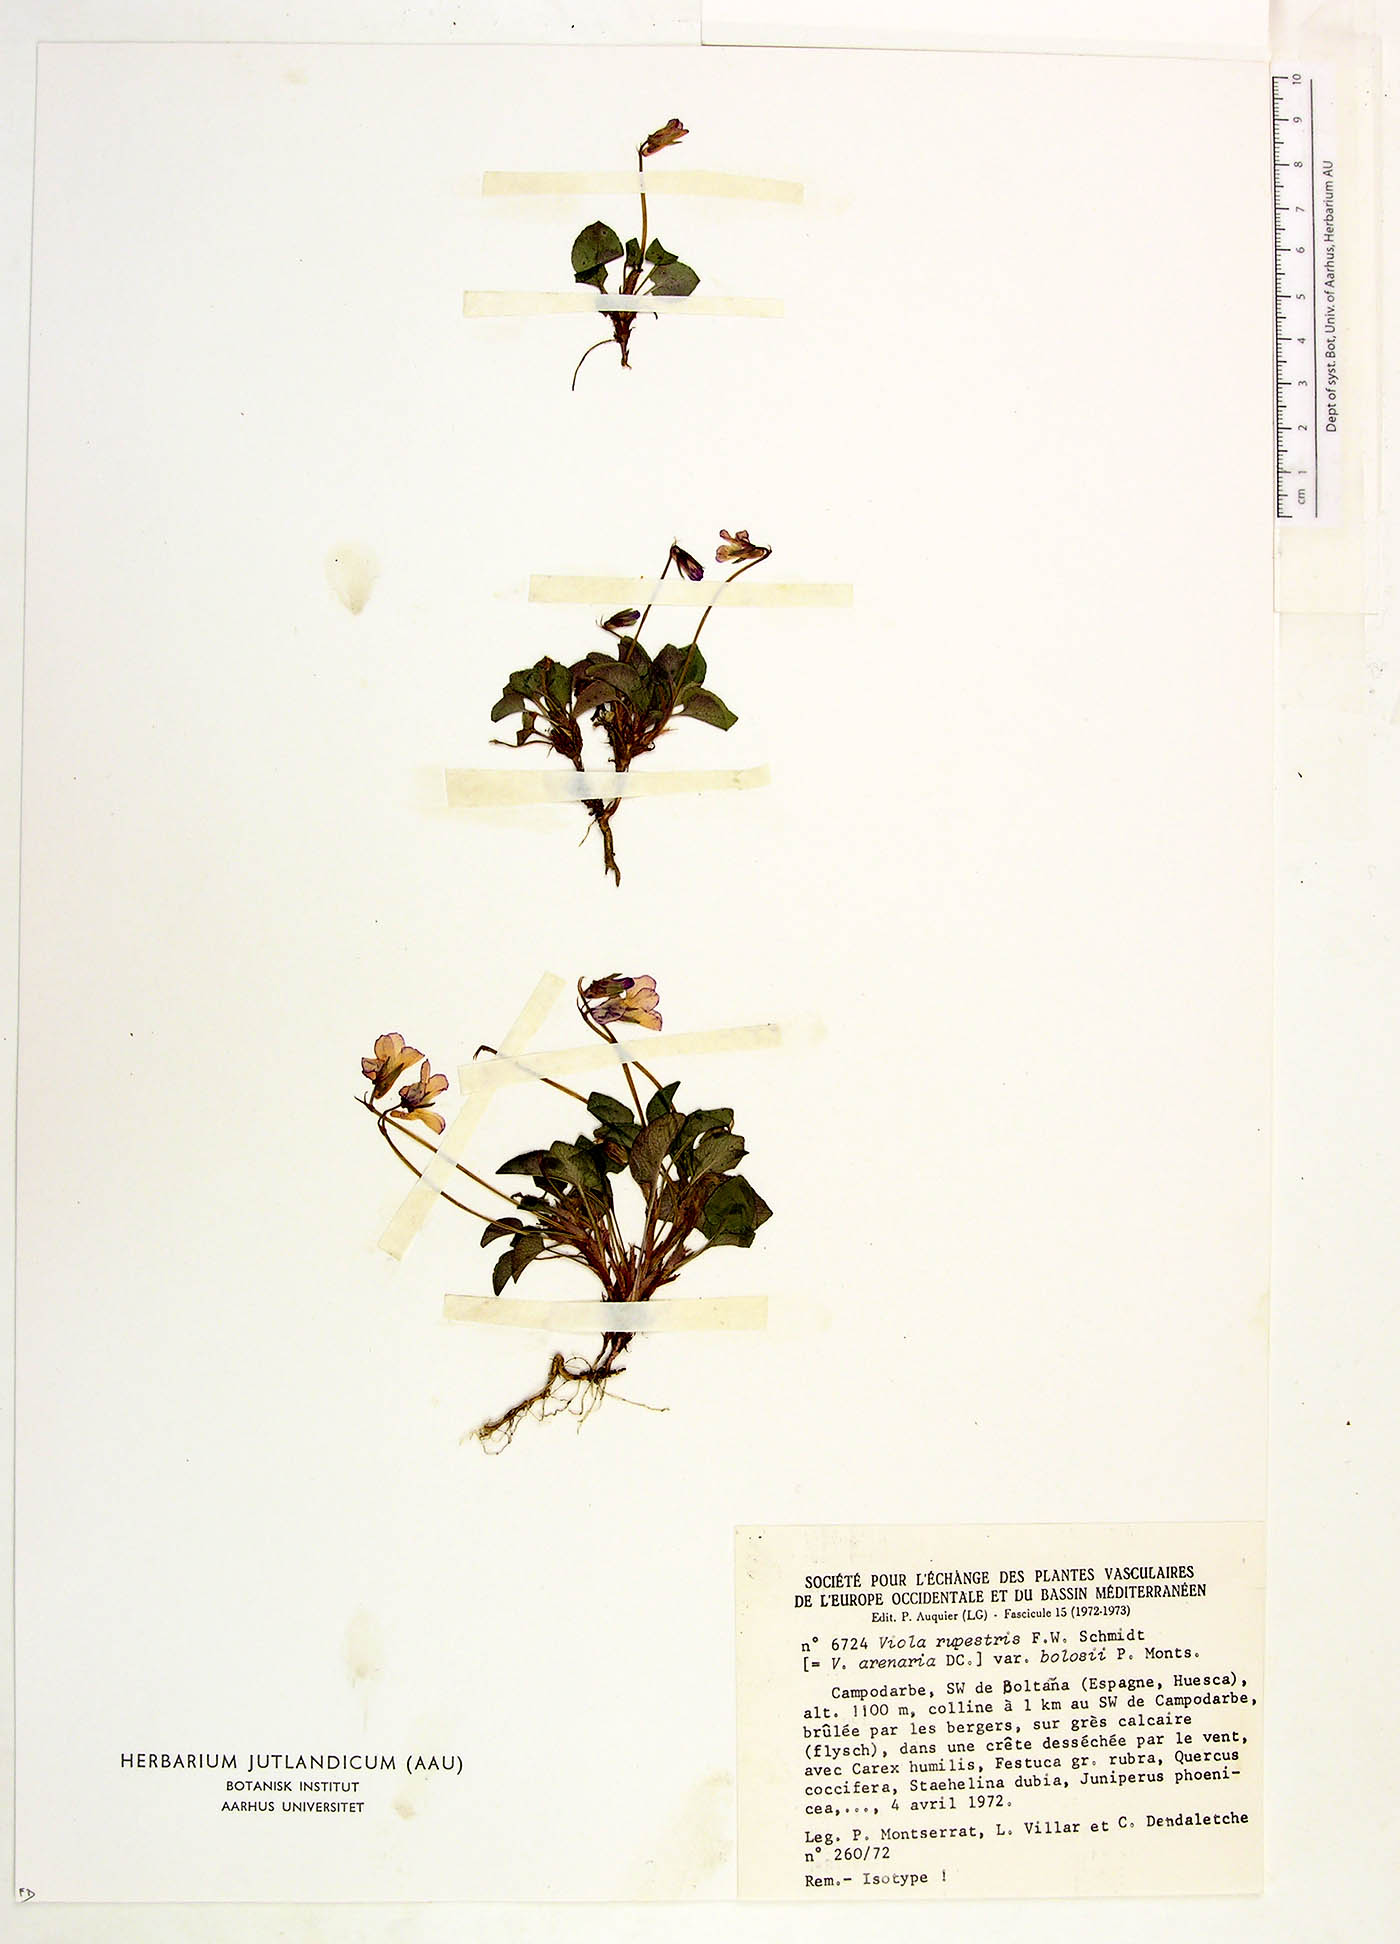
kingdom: Plantae
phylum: Tracheophyta
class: Magnoliopsida
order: Malpighiales
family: Violaceae
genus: Viola
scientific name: Viola rupestris
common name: Teesdale violet
